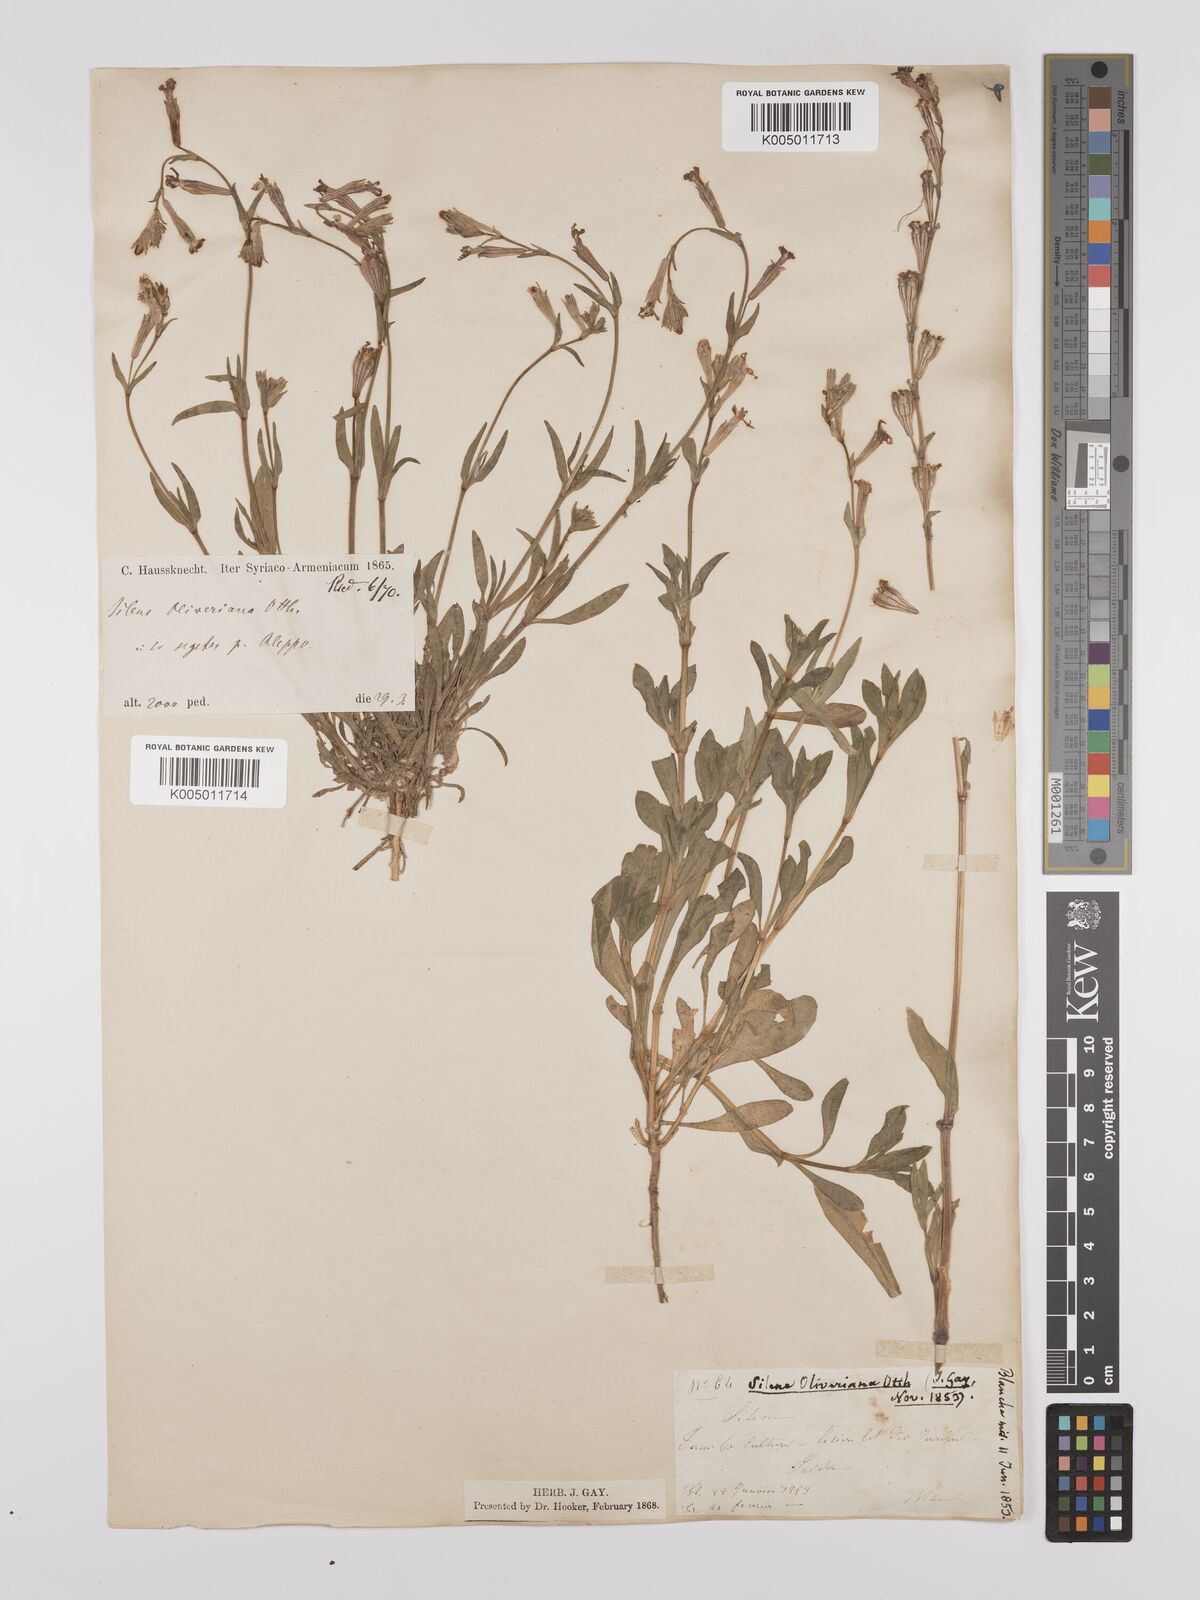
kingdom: Plantae
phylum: Tracheophyta
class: Magnoliopsida
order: Caryophyllales
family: Caryophyllaceae
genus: Silene
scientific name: Silene oliveriana
